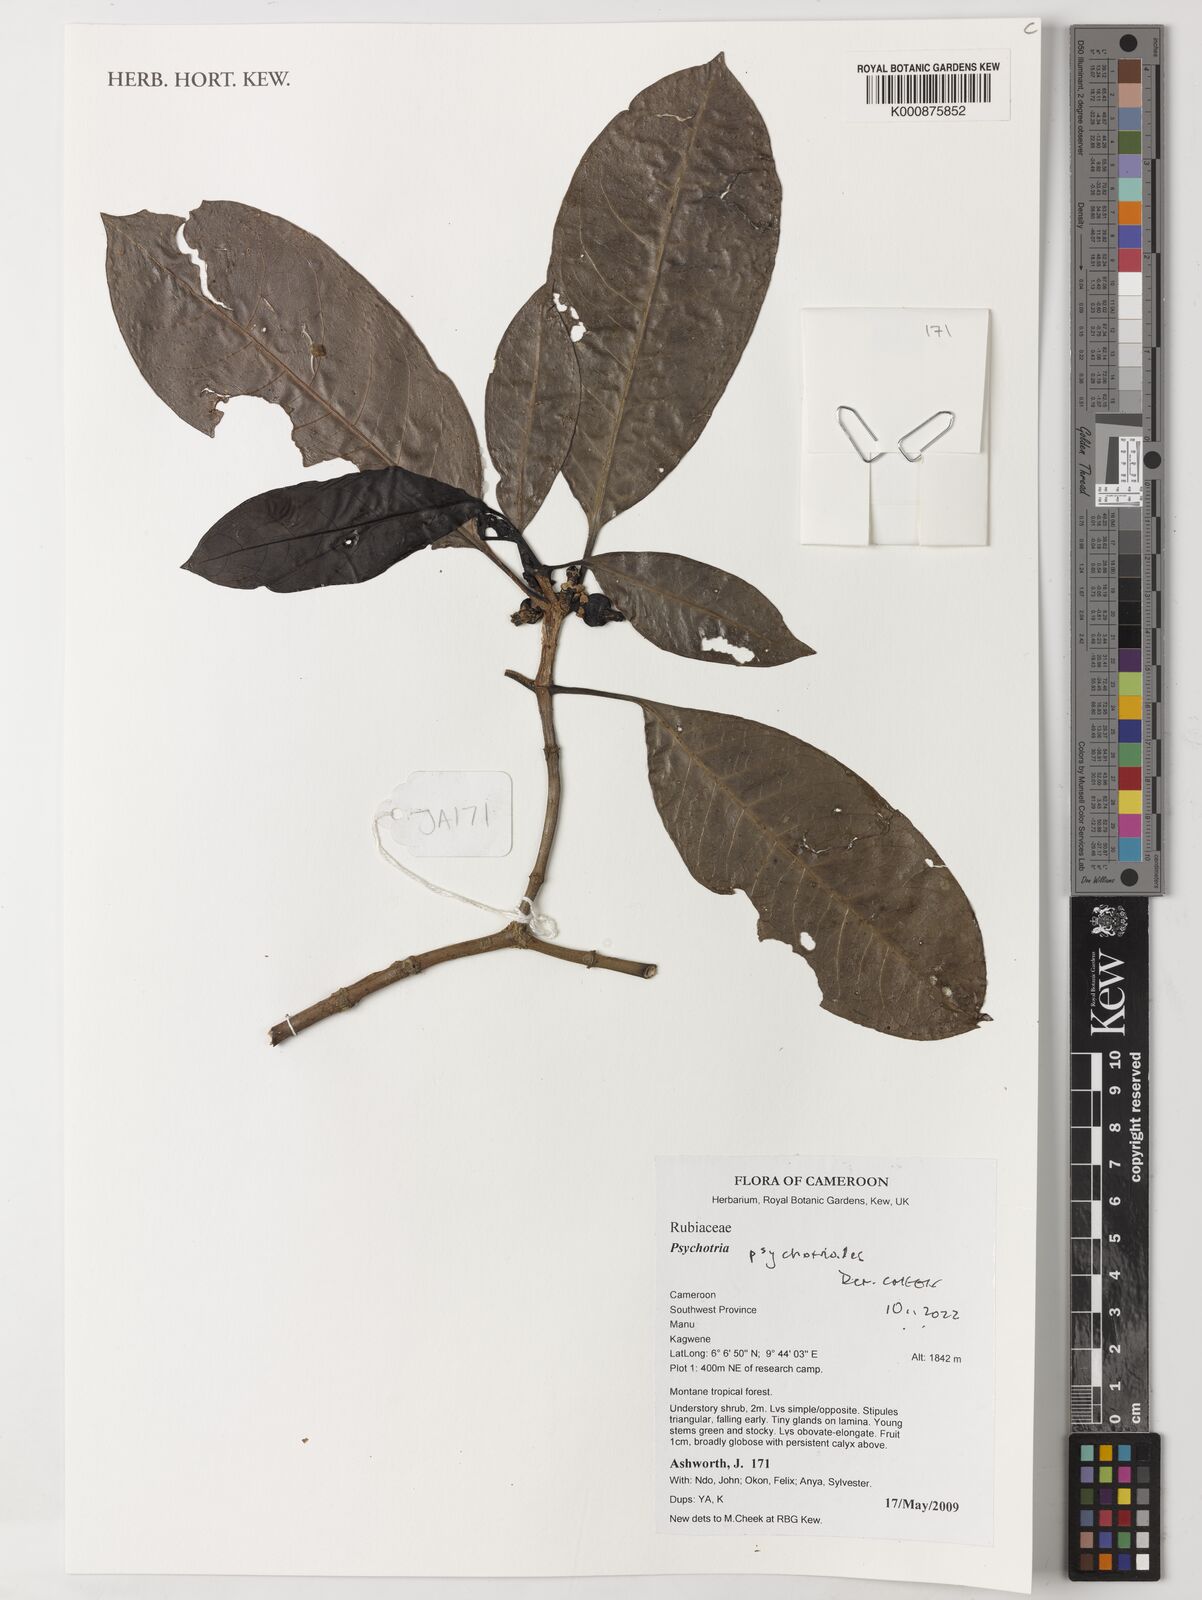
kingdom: Plantae
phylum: Tracheophyta
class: Magnoliopsida
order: Gentianales
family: Rubiaceae
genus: Psychotria
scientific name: Psychotria psychotrioides
